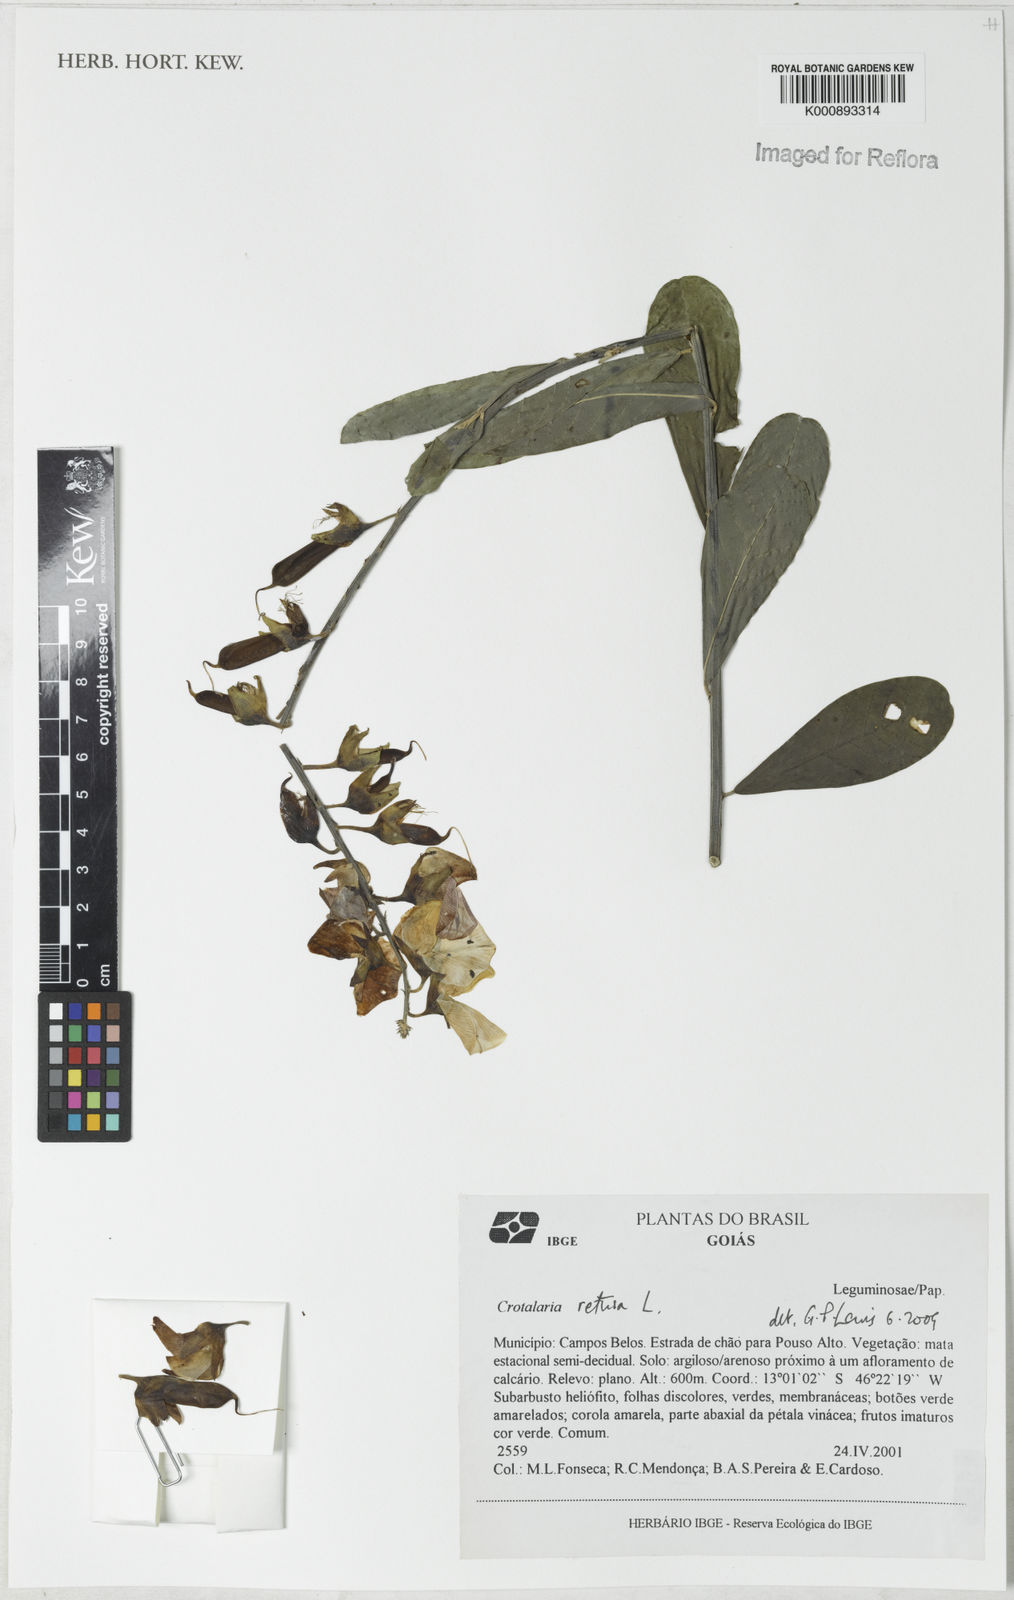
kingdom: Plantae
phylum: Tracheophyta
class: Magnoliopsida
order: Fabales
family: Fabaceae
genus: Crotalaria
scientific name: Crotalaria retusa
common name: Rattleweed
